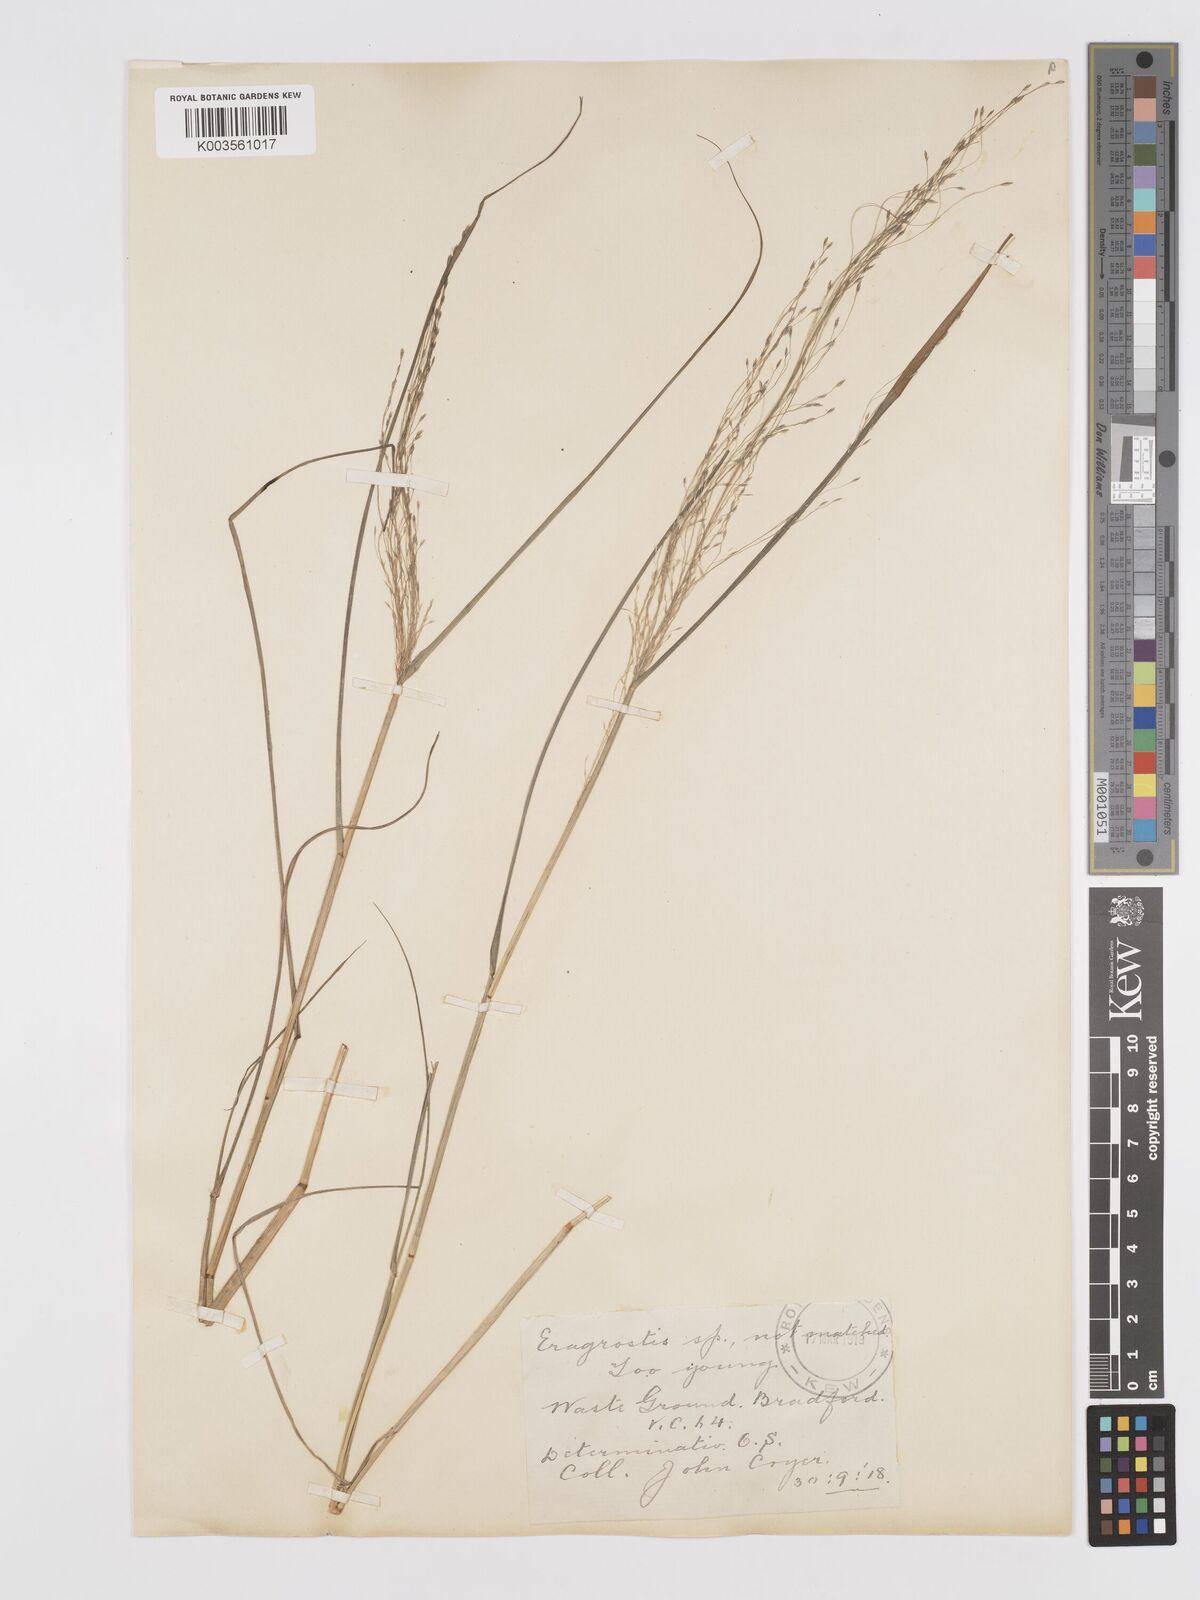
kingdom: Plantae
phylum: Tracheophyta
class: Liliopsida
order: Poales
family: Poaceae
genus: Eragrostis
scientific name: Eragrostis
